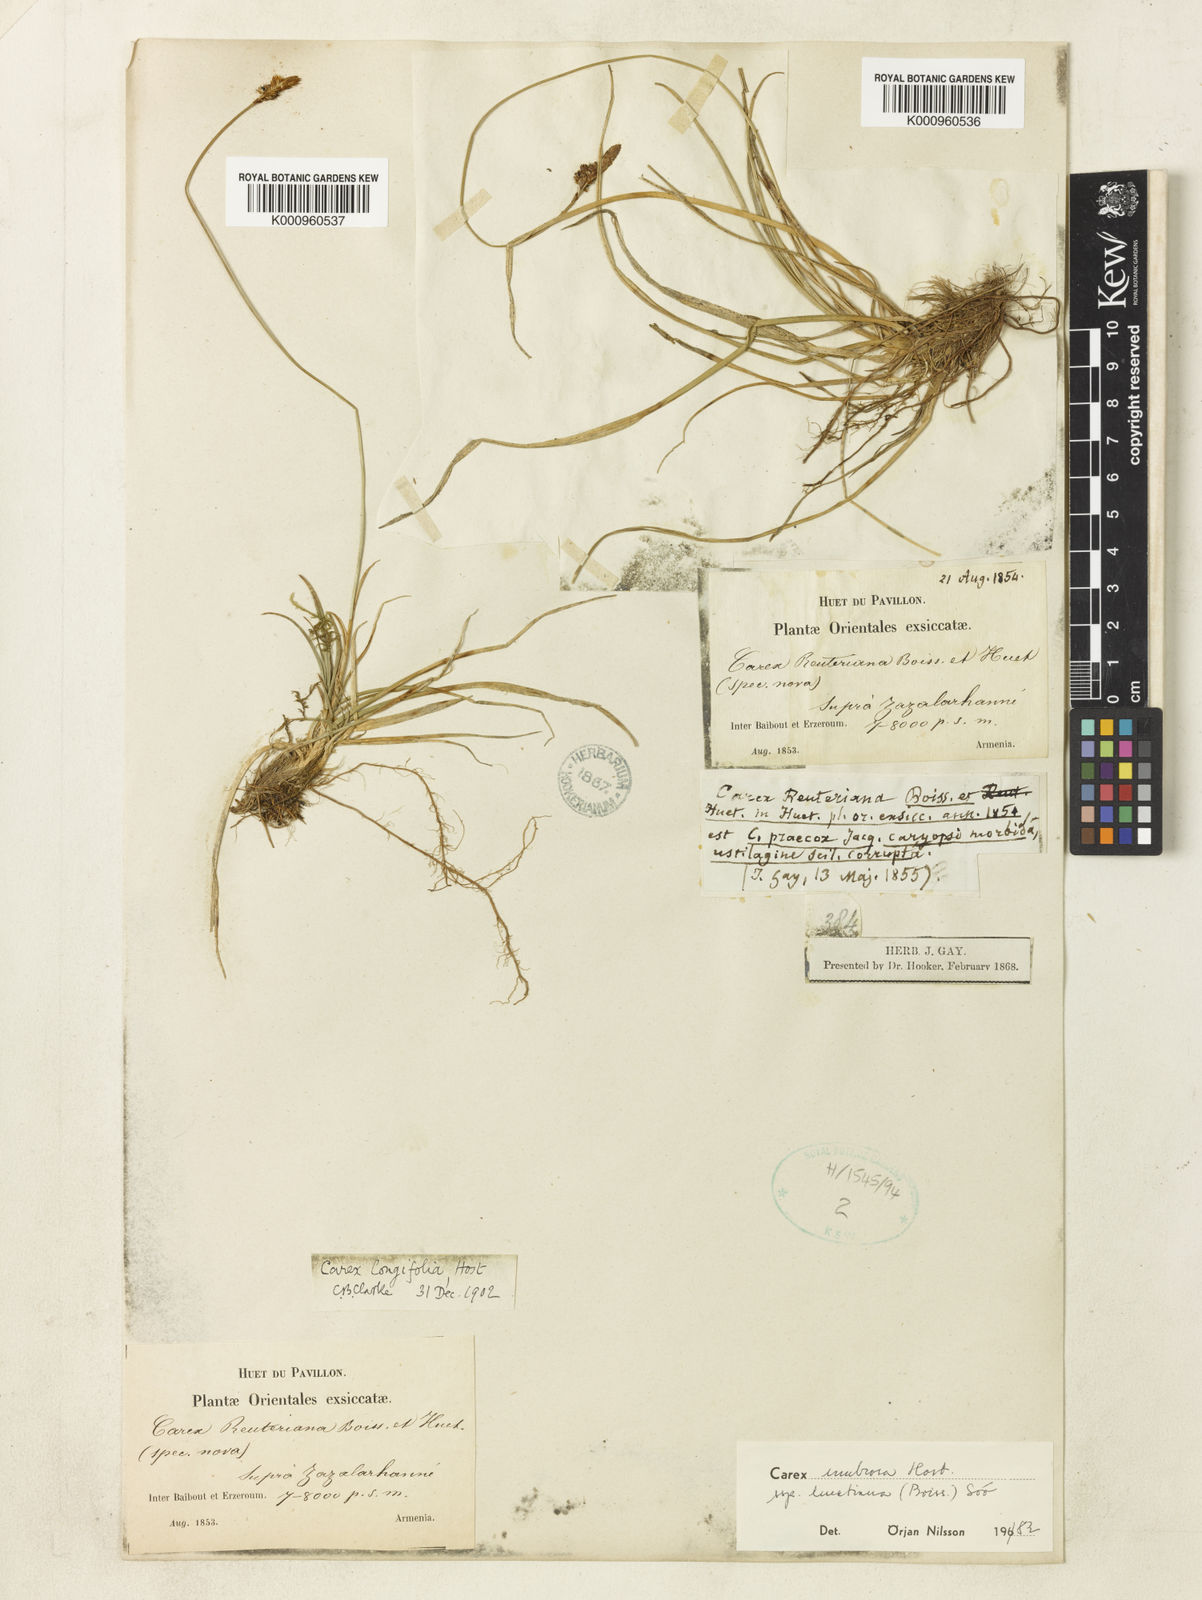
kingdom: Plantae
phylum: Tracheophyta
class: Liliopsida
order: Poales
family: Cyperaceae
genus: Carex
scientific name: Carex umbrosa
